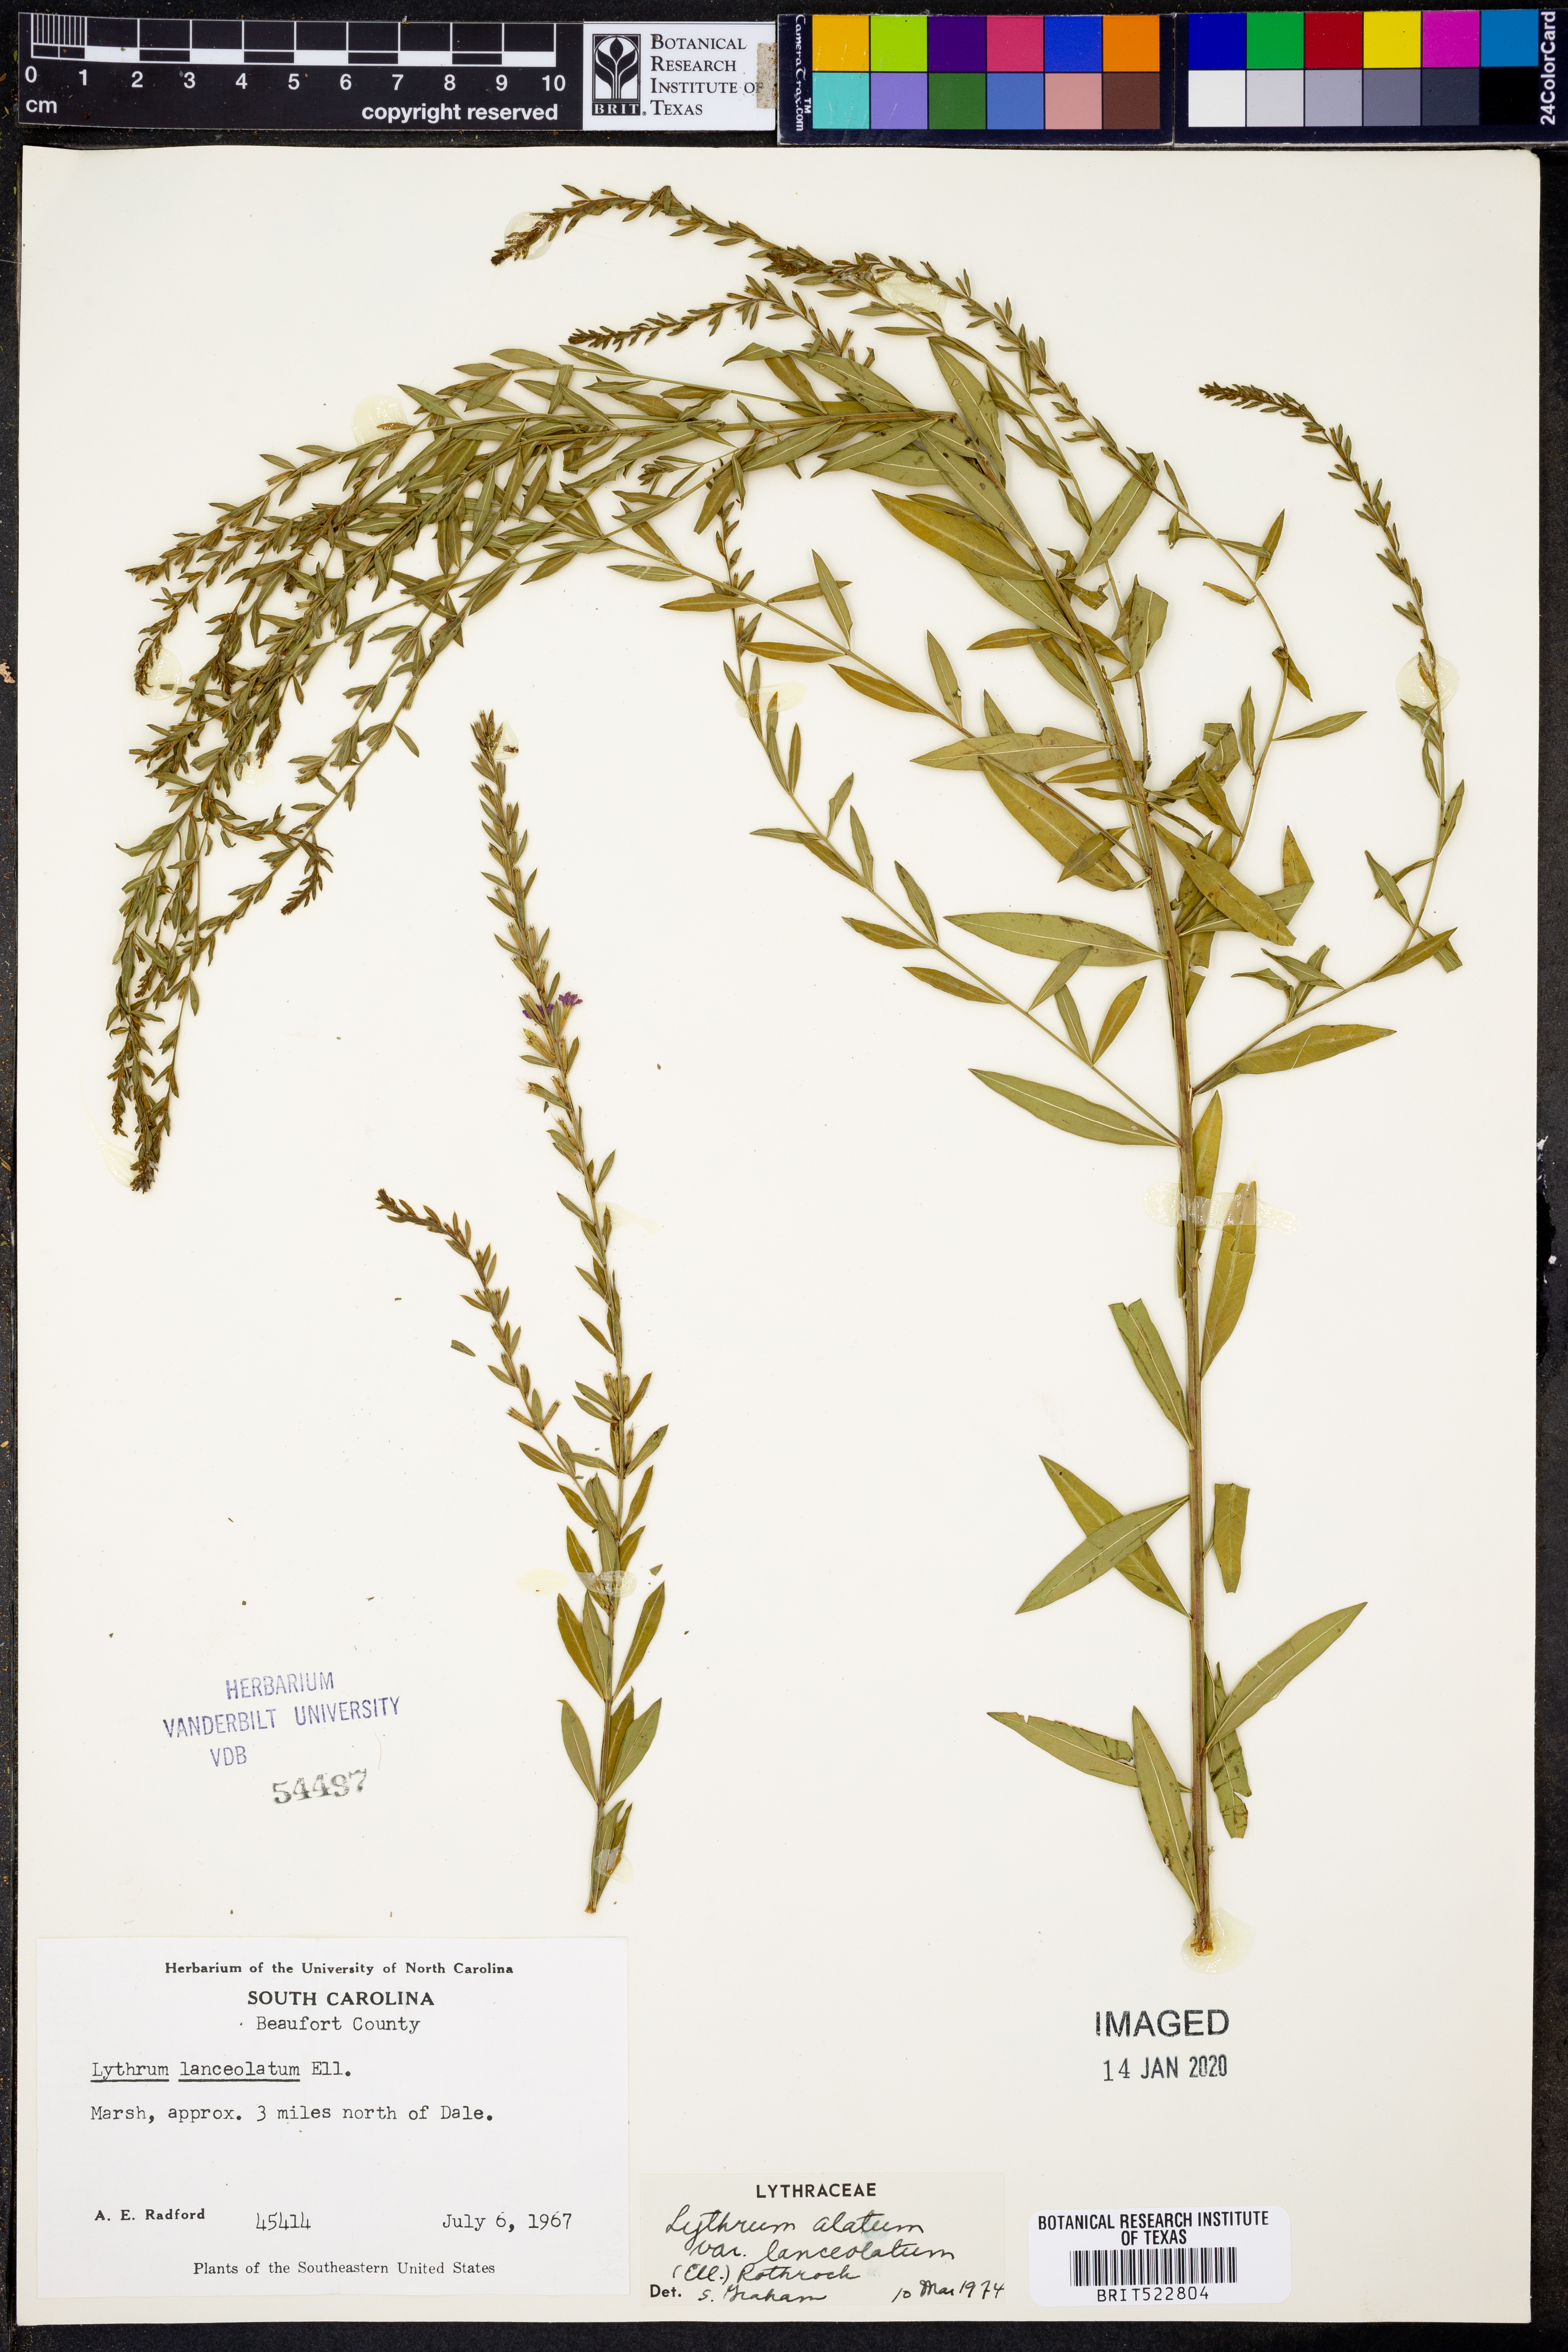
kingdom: Plantae
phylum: Tracheophyta
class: Magnoliopsida
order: Myrtales
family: Lythraceae
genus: Lythrum
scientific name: Lythrum alatum
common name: Winged loosestrife
